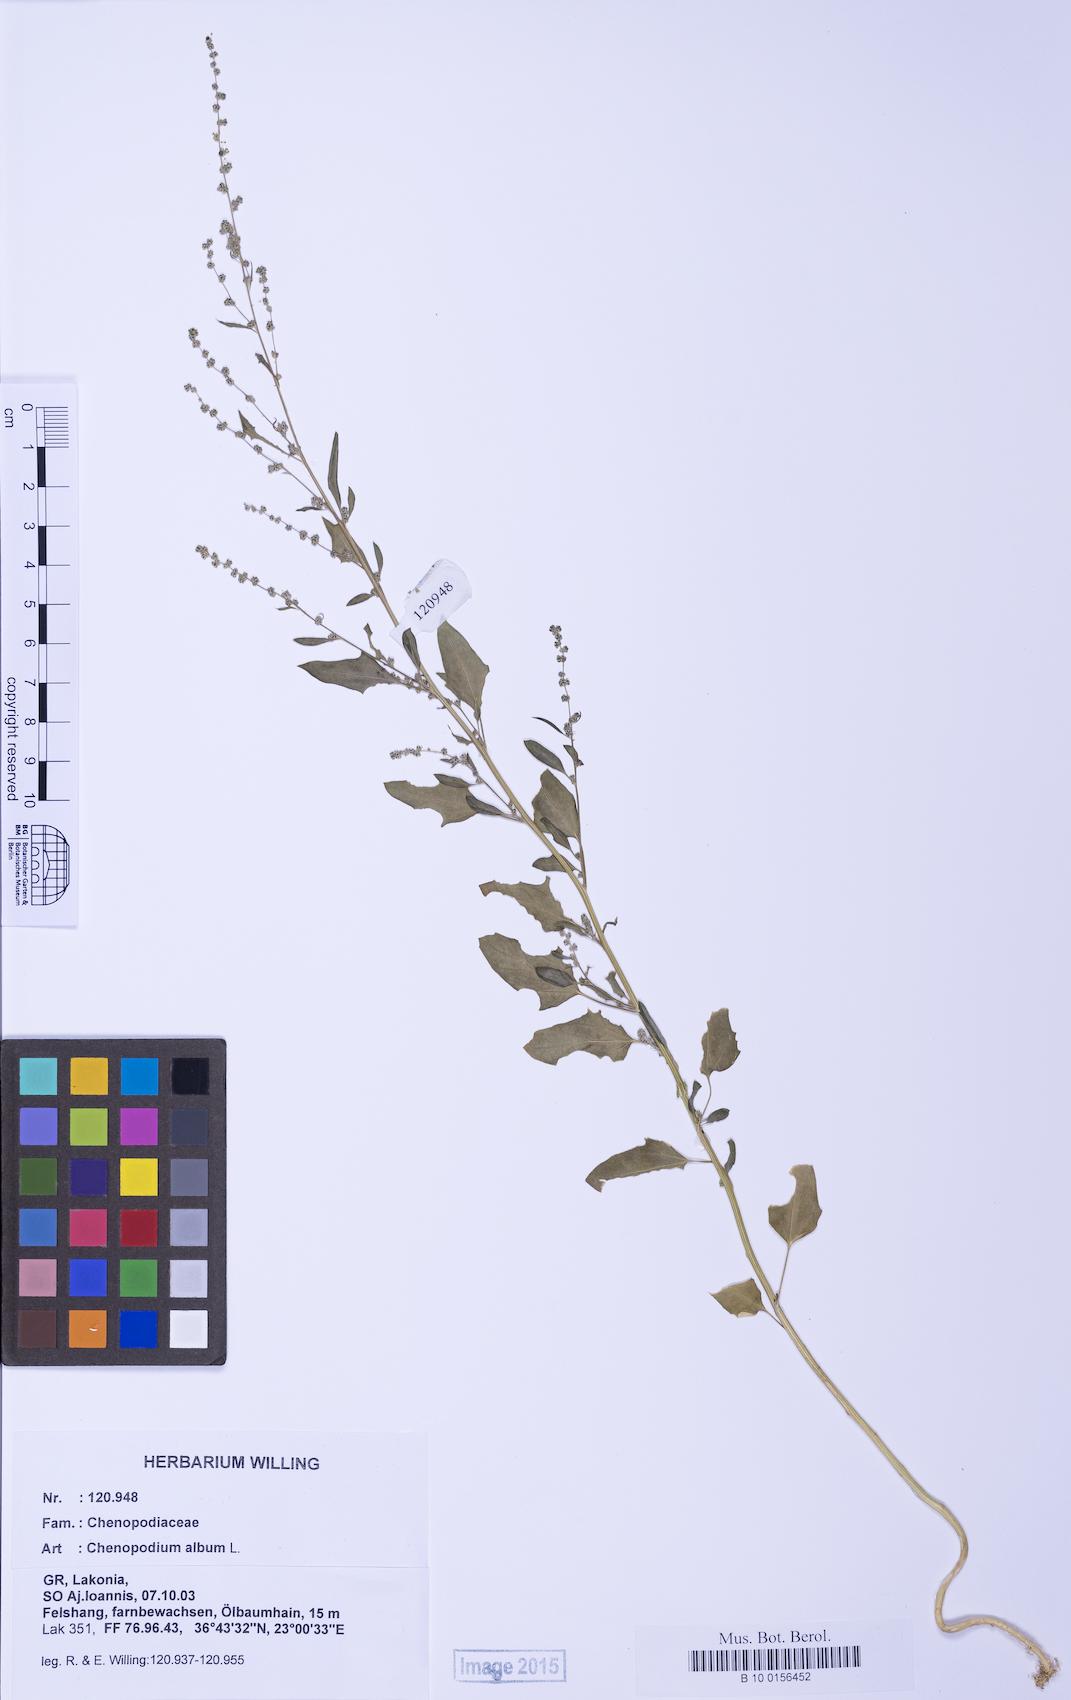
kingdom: Plantae
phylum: Tracheophyta
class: Magnoliopsida
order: Caryophyllales
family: Amaranthaceae
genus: Chenopodium
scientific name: Chenopodium album
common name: Fat-hen
